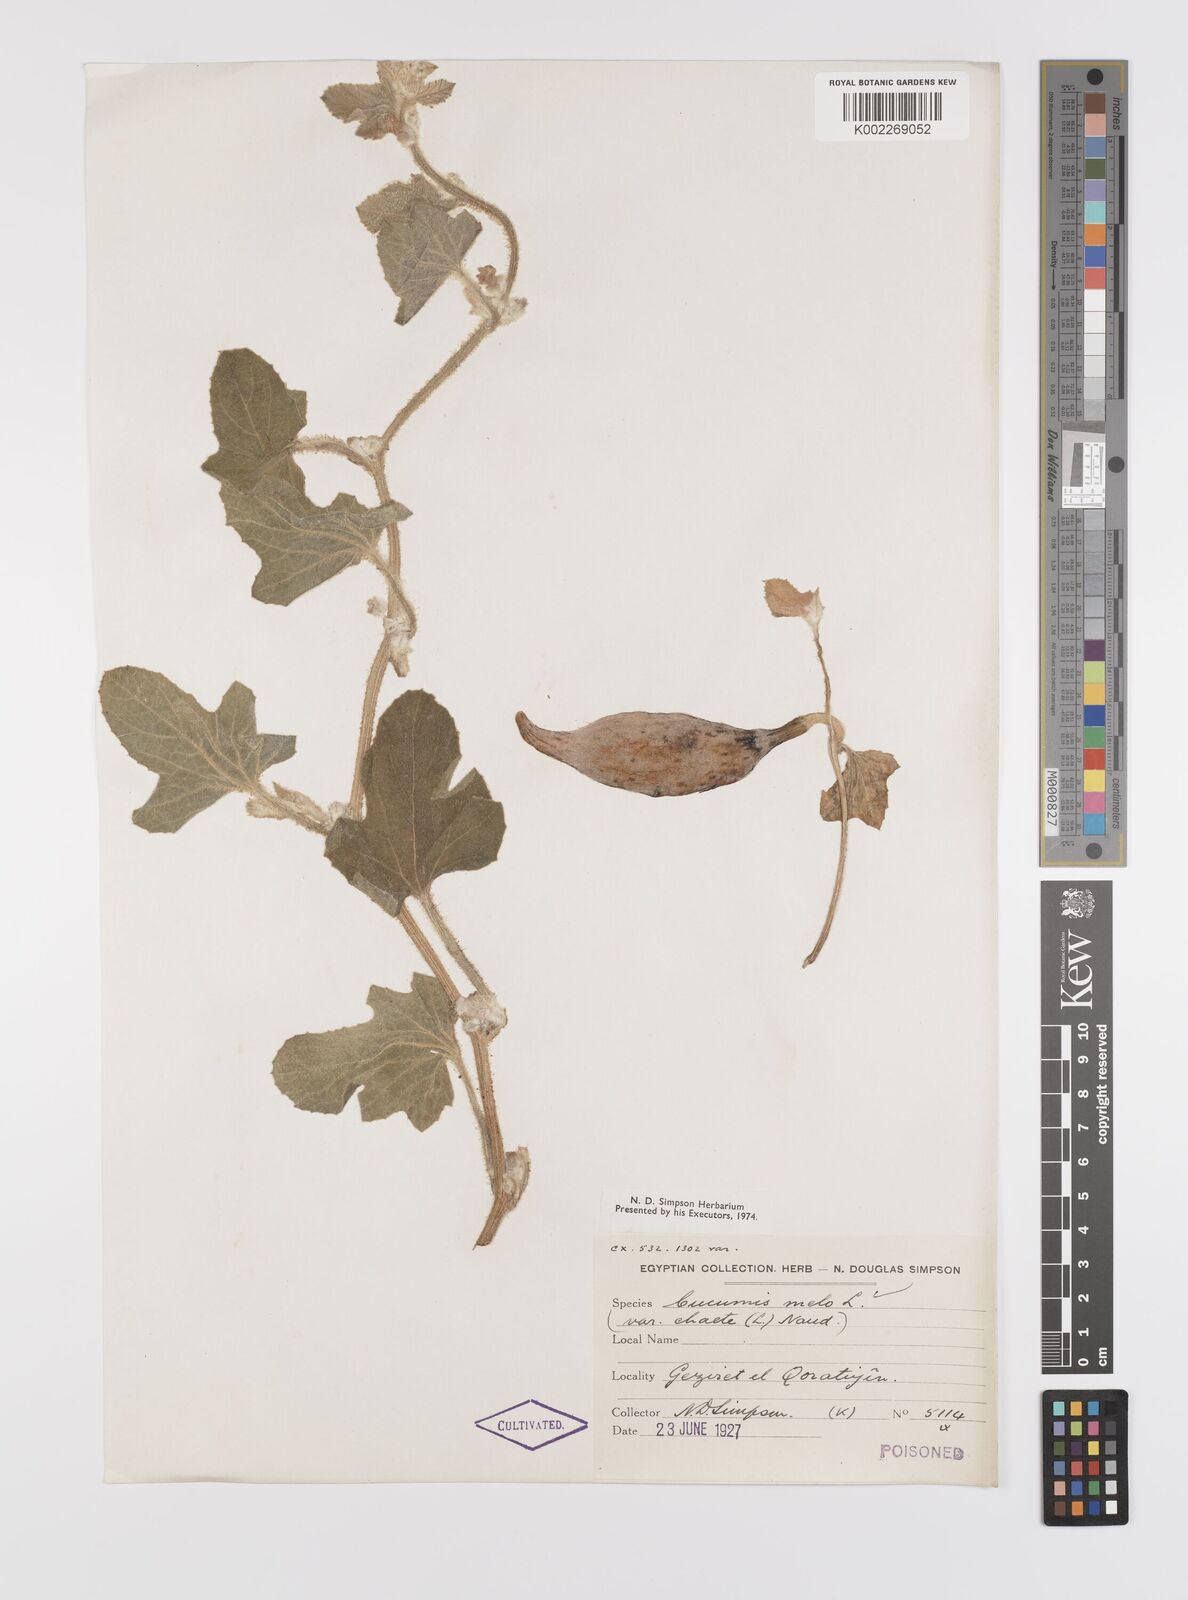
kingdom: Plantae
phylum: Tracheophyta
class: Magnoliopsida
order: Cucurbitales
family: Cucurbitaceae
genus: Cucumis
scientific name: Cucumis melo
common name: Melon
